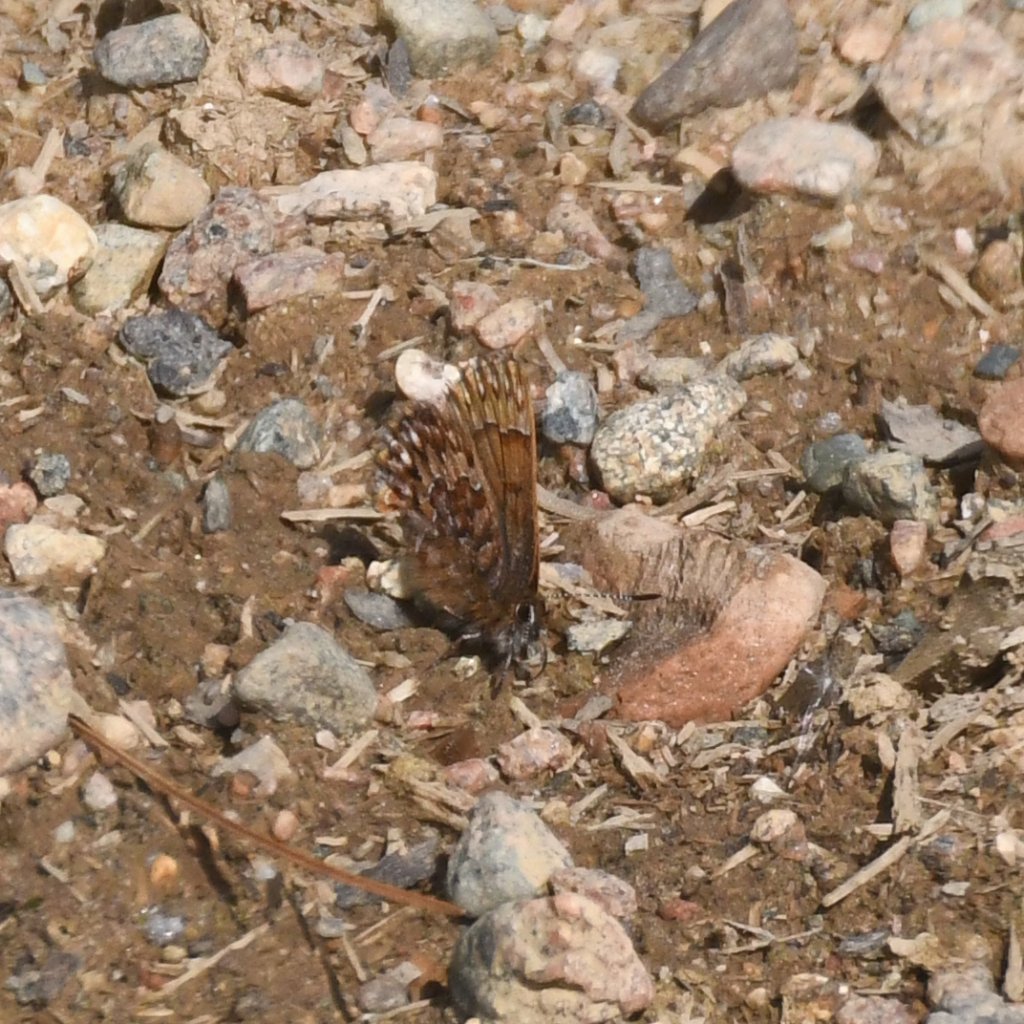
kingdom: Animalia
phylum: Arthropoda
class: Insecta
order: Lepidoptera
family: Lycaenidae
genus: Incisalia
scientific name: Incisalia eryphon
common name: Western Pine Elfin
